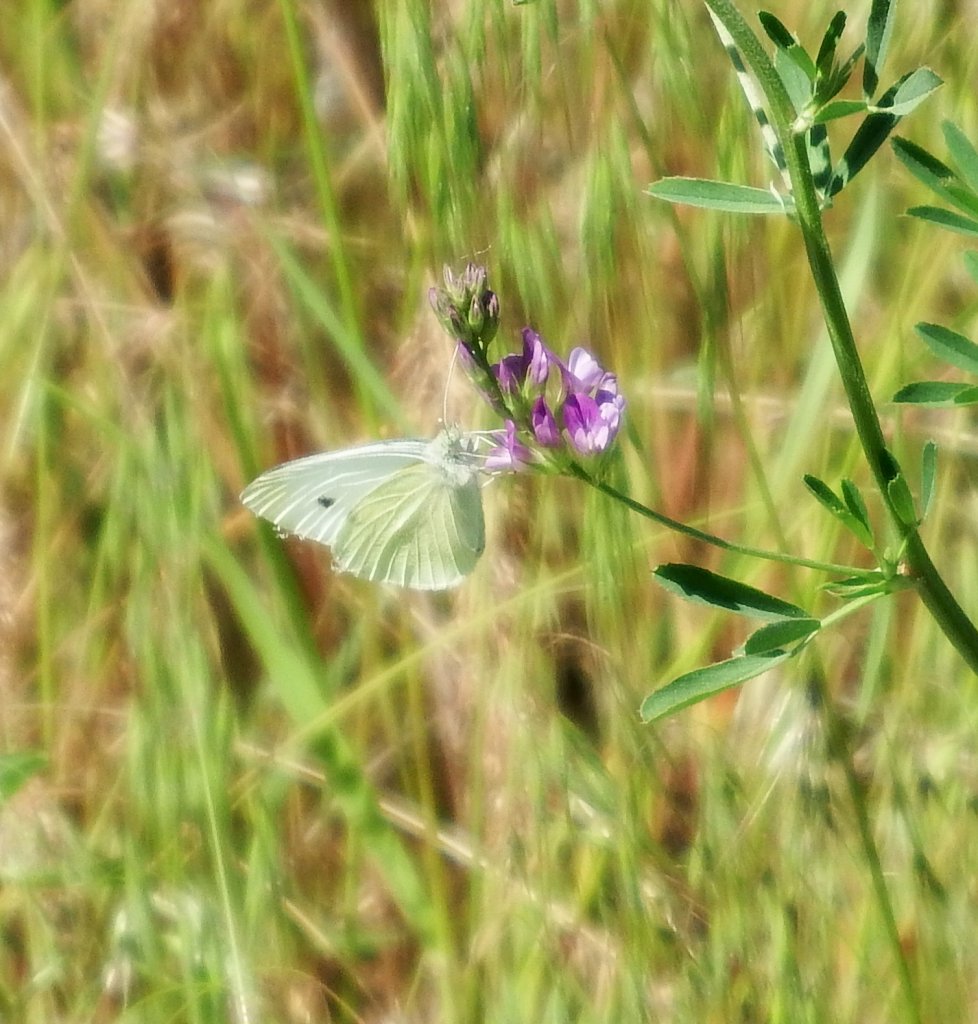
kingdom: Animalia
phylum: Arthropoda
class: Insecta
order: Lepidoptera
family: Pieridae
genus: Pieris
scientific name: Pieris rapae
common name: Cabbage White
